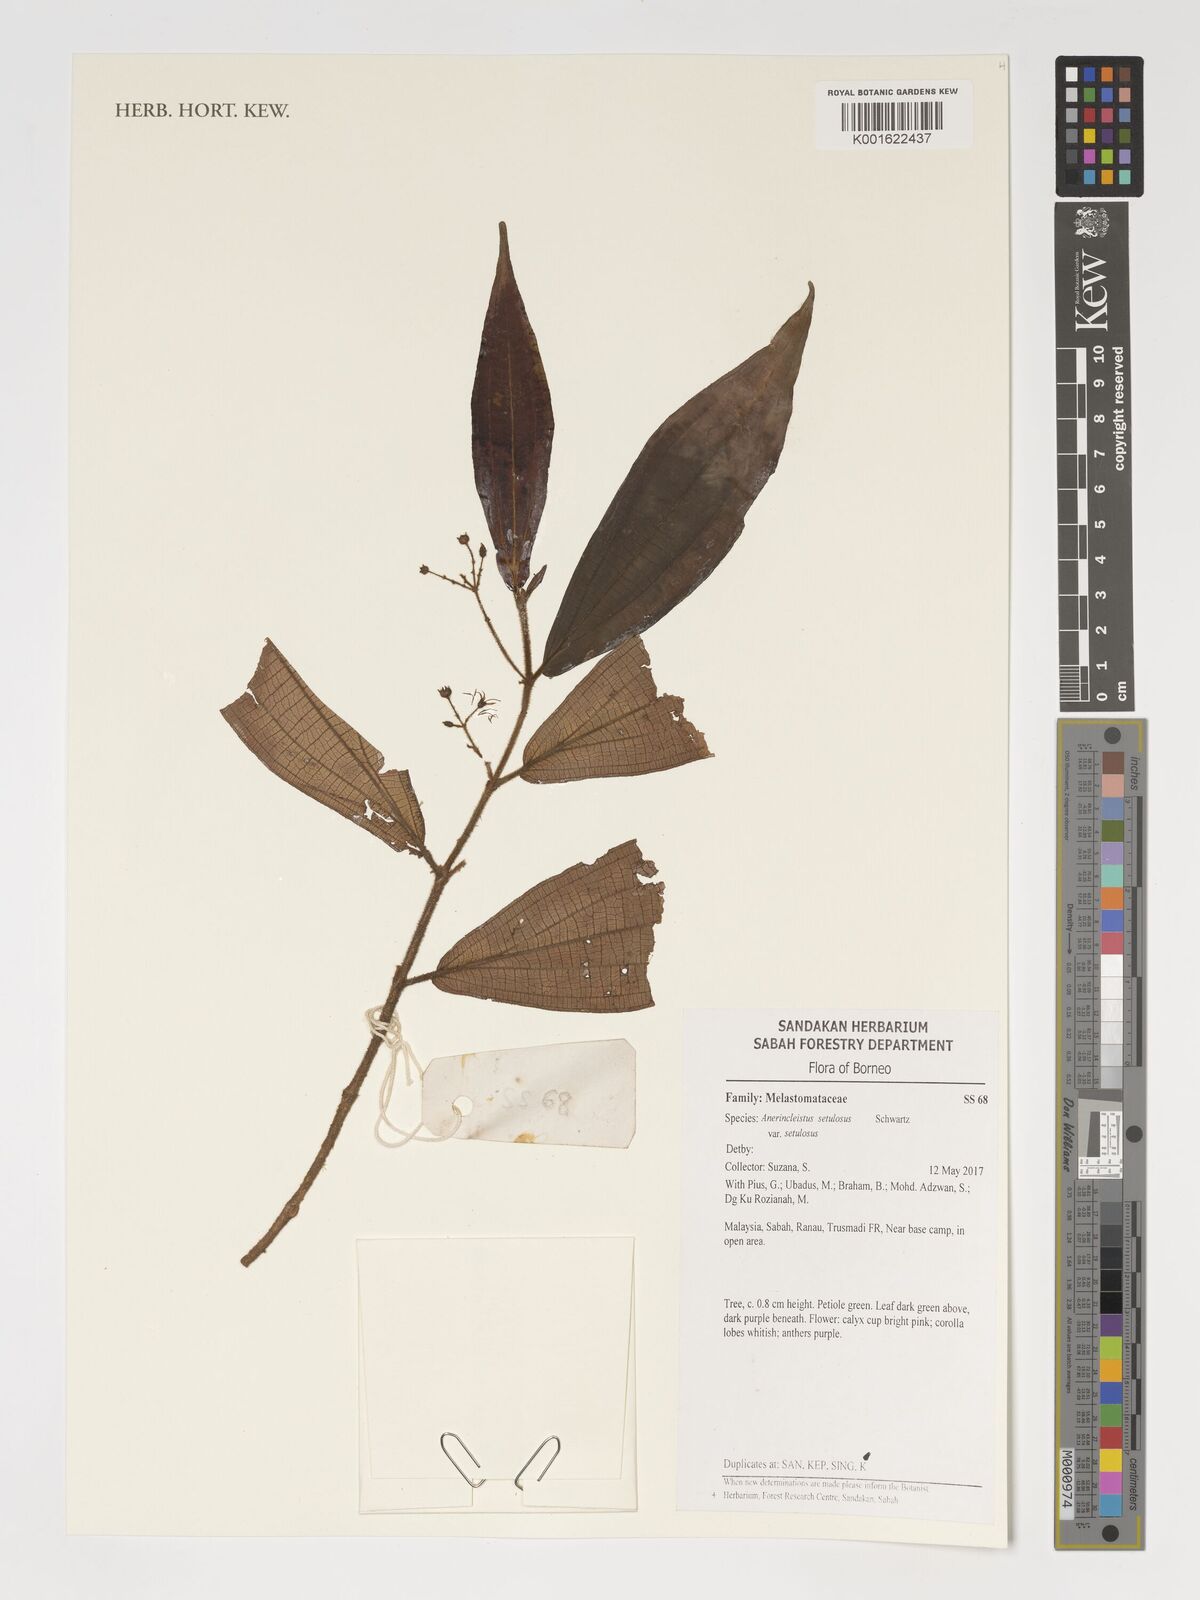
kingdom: Plantae
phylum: Tracheophyta
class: Magnoliopsida
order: Myrtales
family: Melastomataceae
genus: Anerincleistus
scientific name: Anerincleistus setulosus
